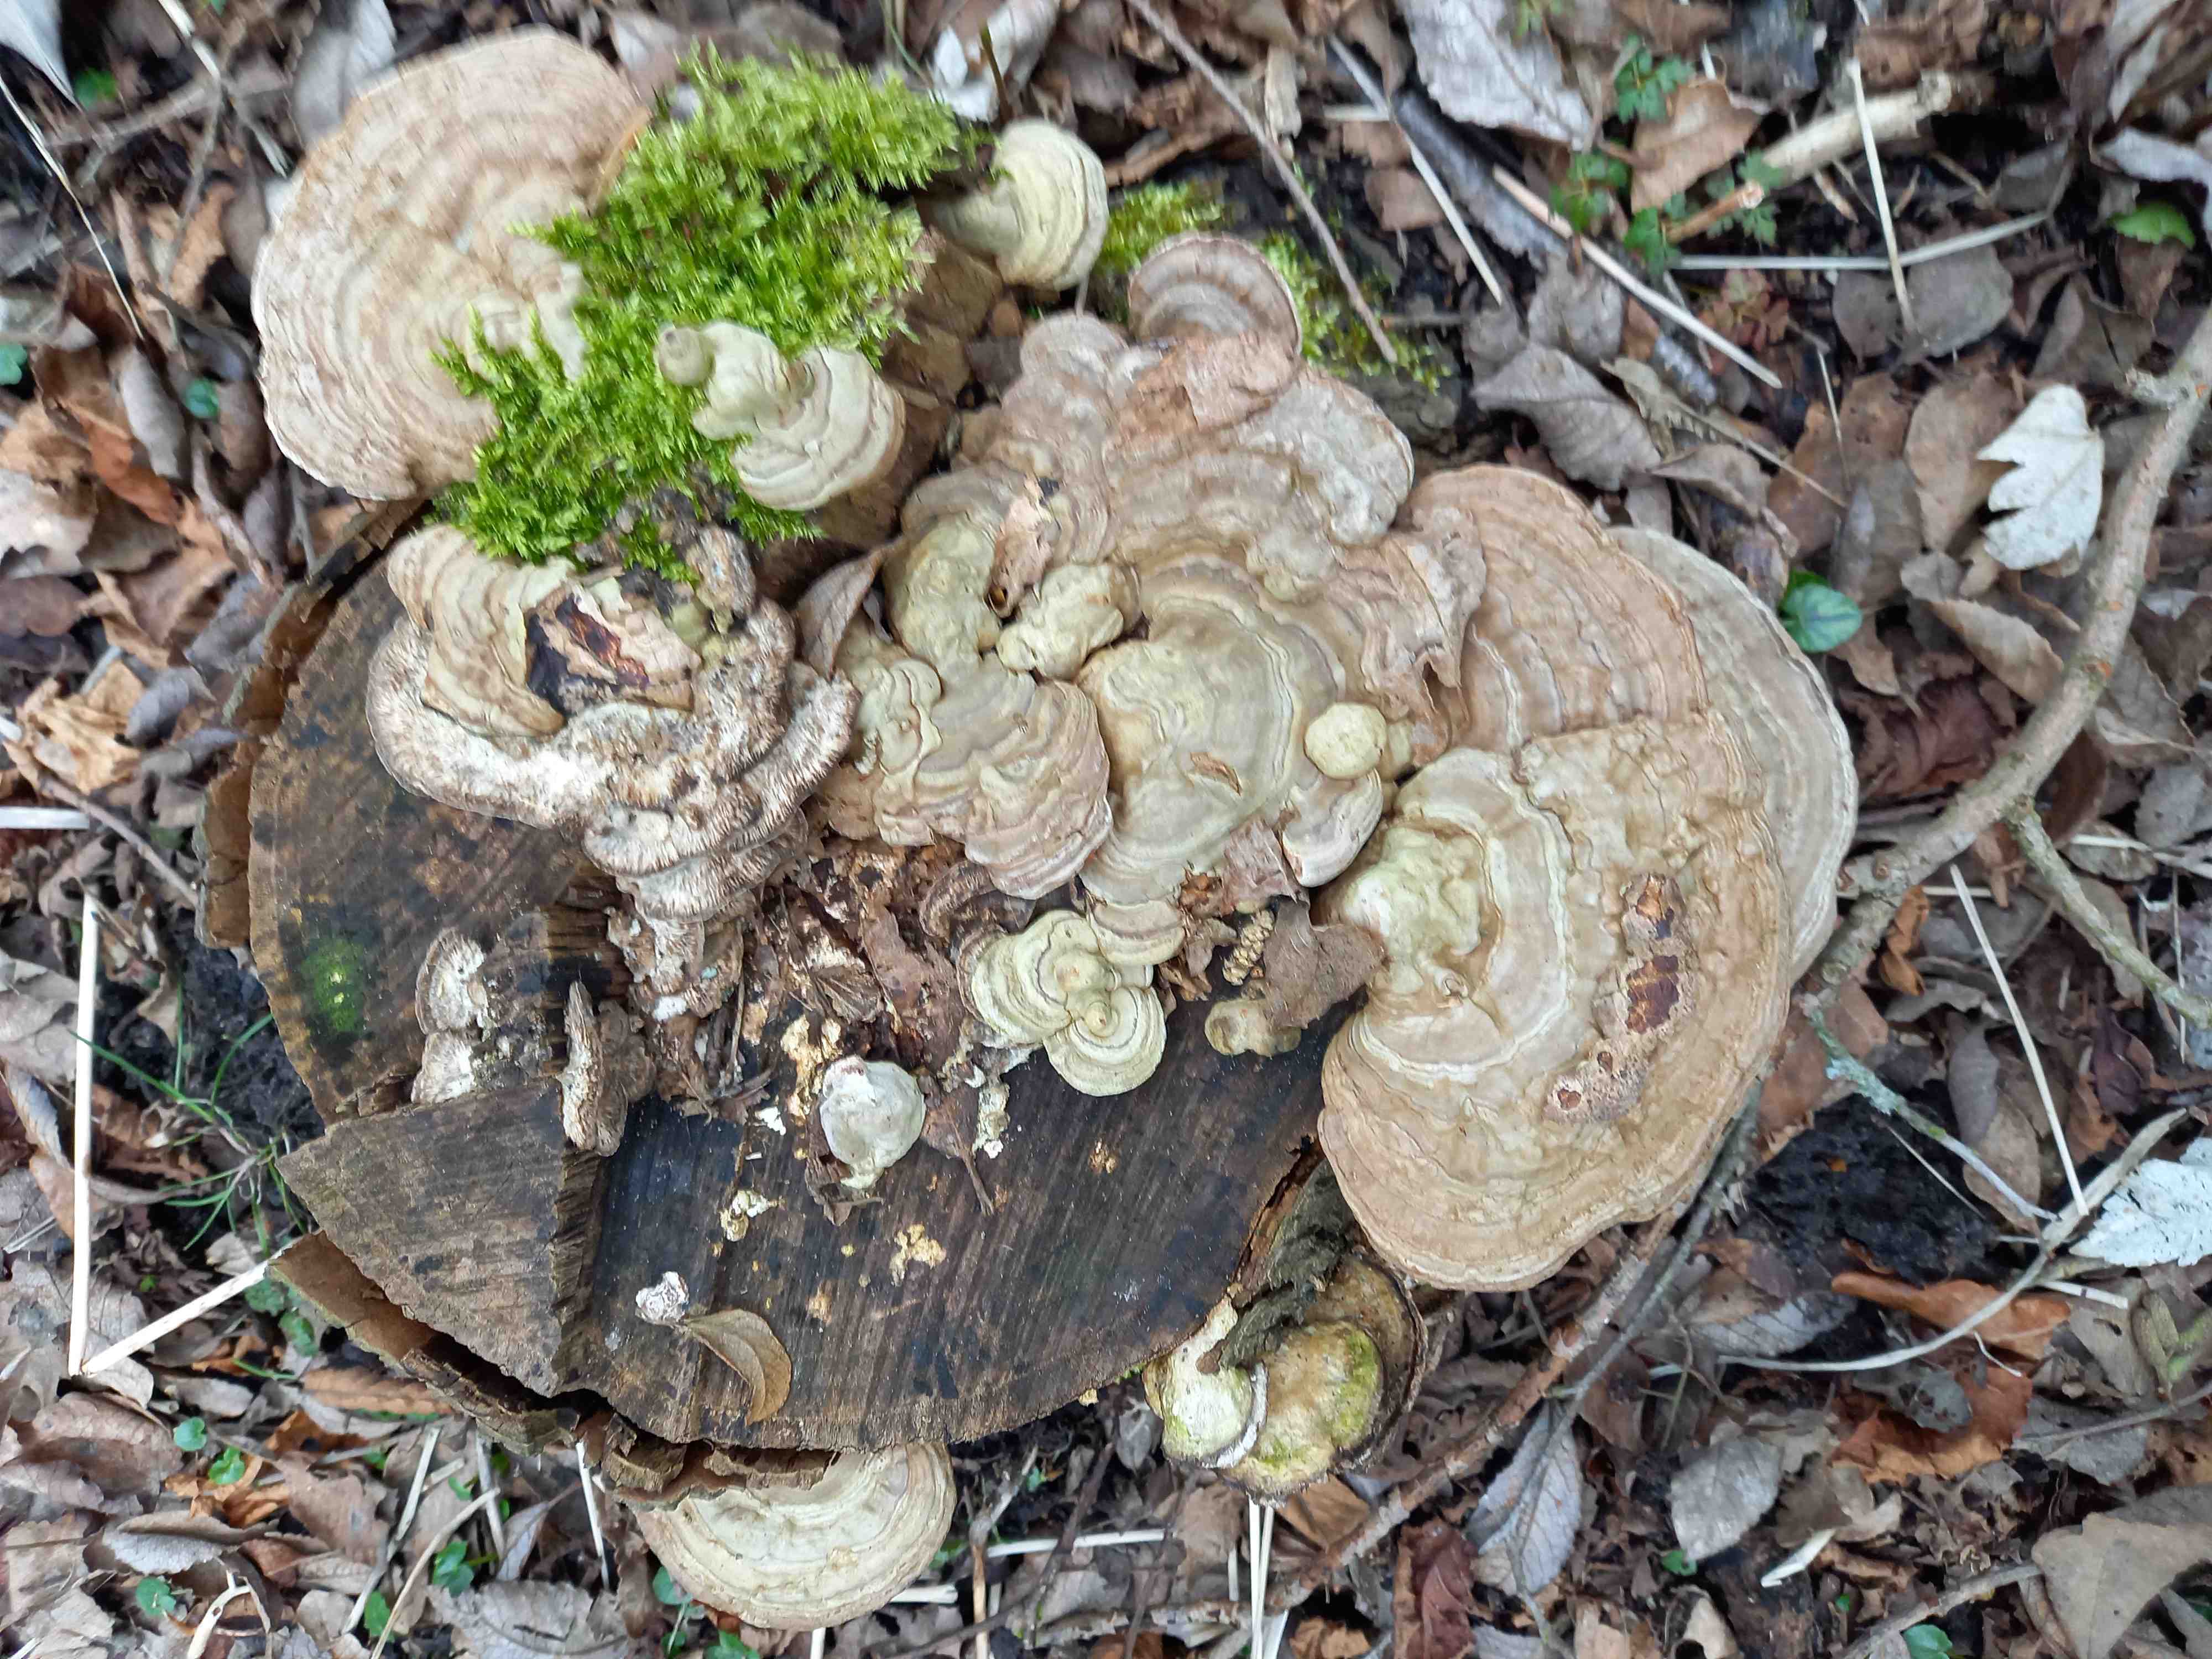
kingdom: Fungi
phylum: Basidiomycota
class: Agaricomycetes
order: Polyporales
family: Polyporaceae
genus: Ganoderma
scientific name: Ganoderma applanatum
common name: flad lakporesvamp
